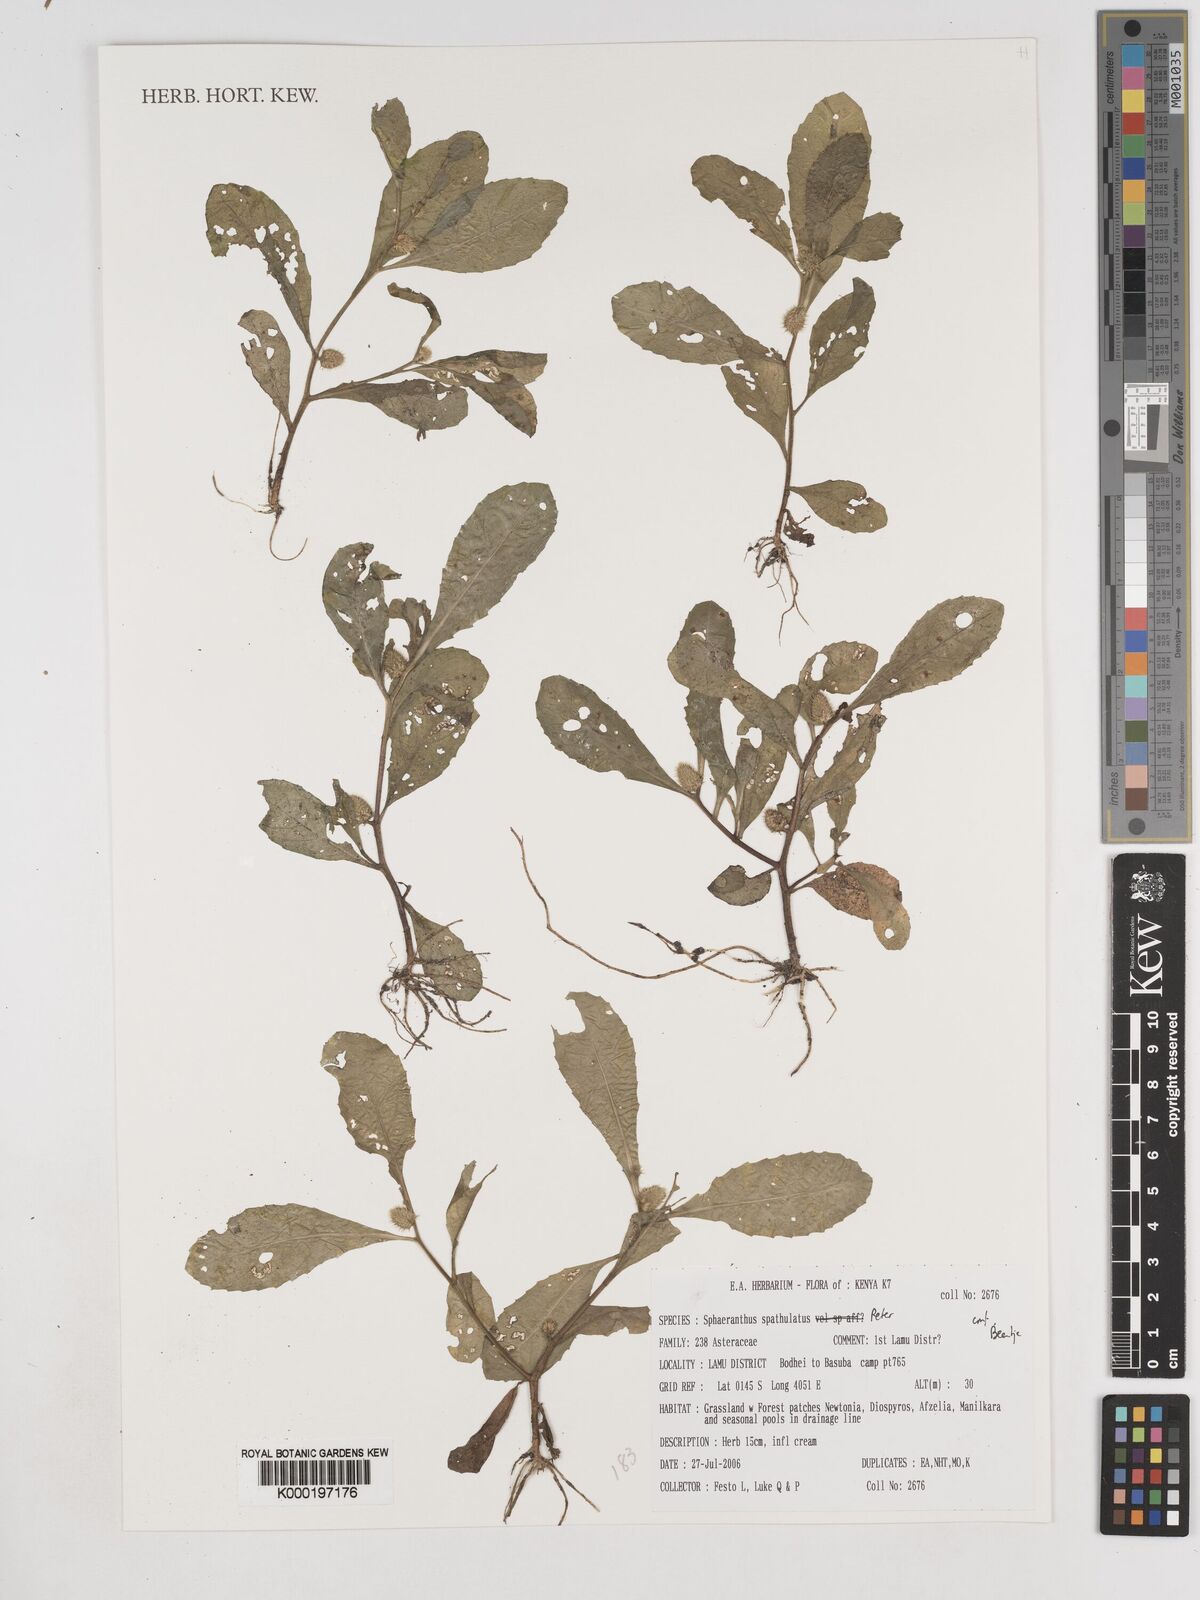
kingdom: Plantae
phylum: Tracheophyta
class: Magnoliopsida
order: Asterales
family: Asteraceae
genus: Sphaeranthus
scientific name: Sphaeranthus spathulatus
